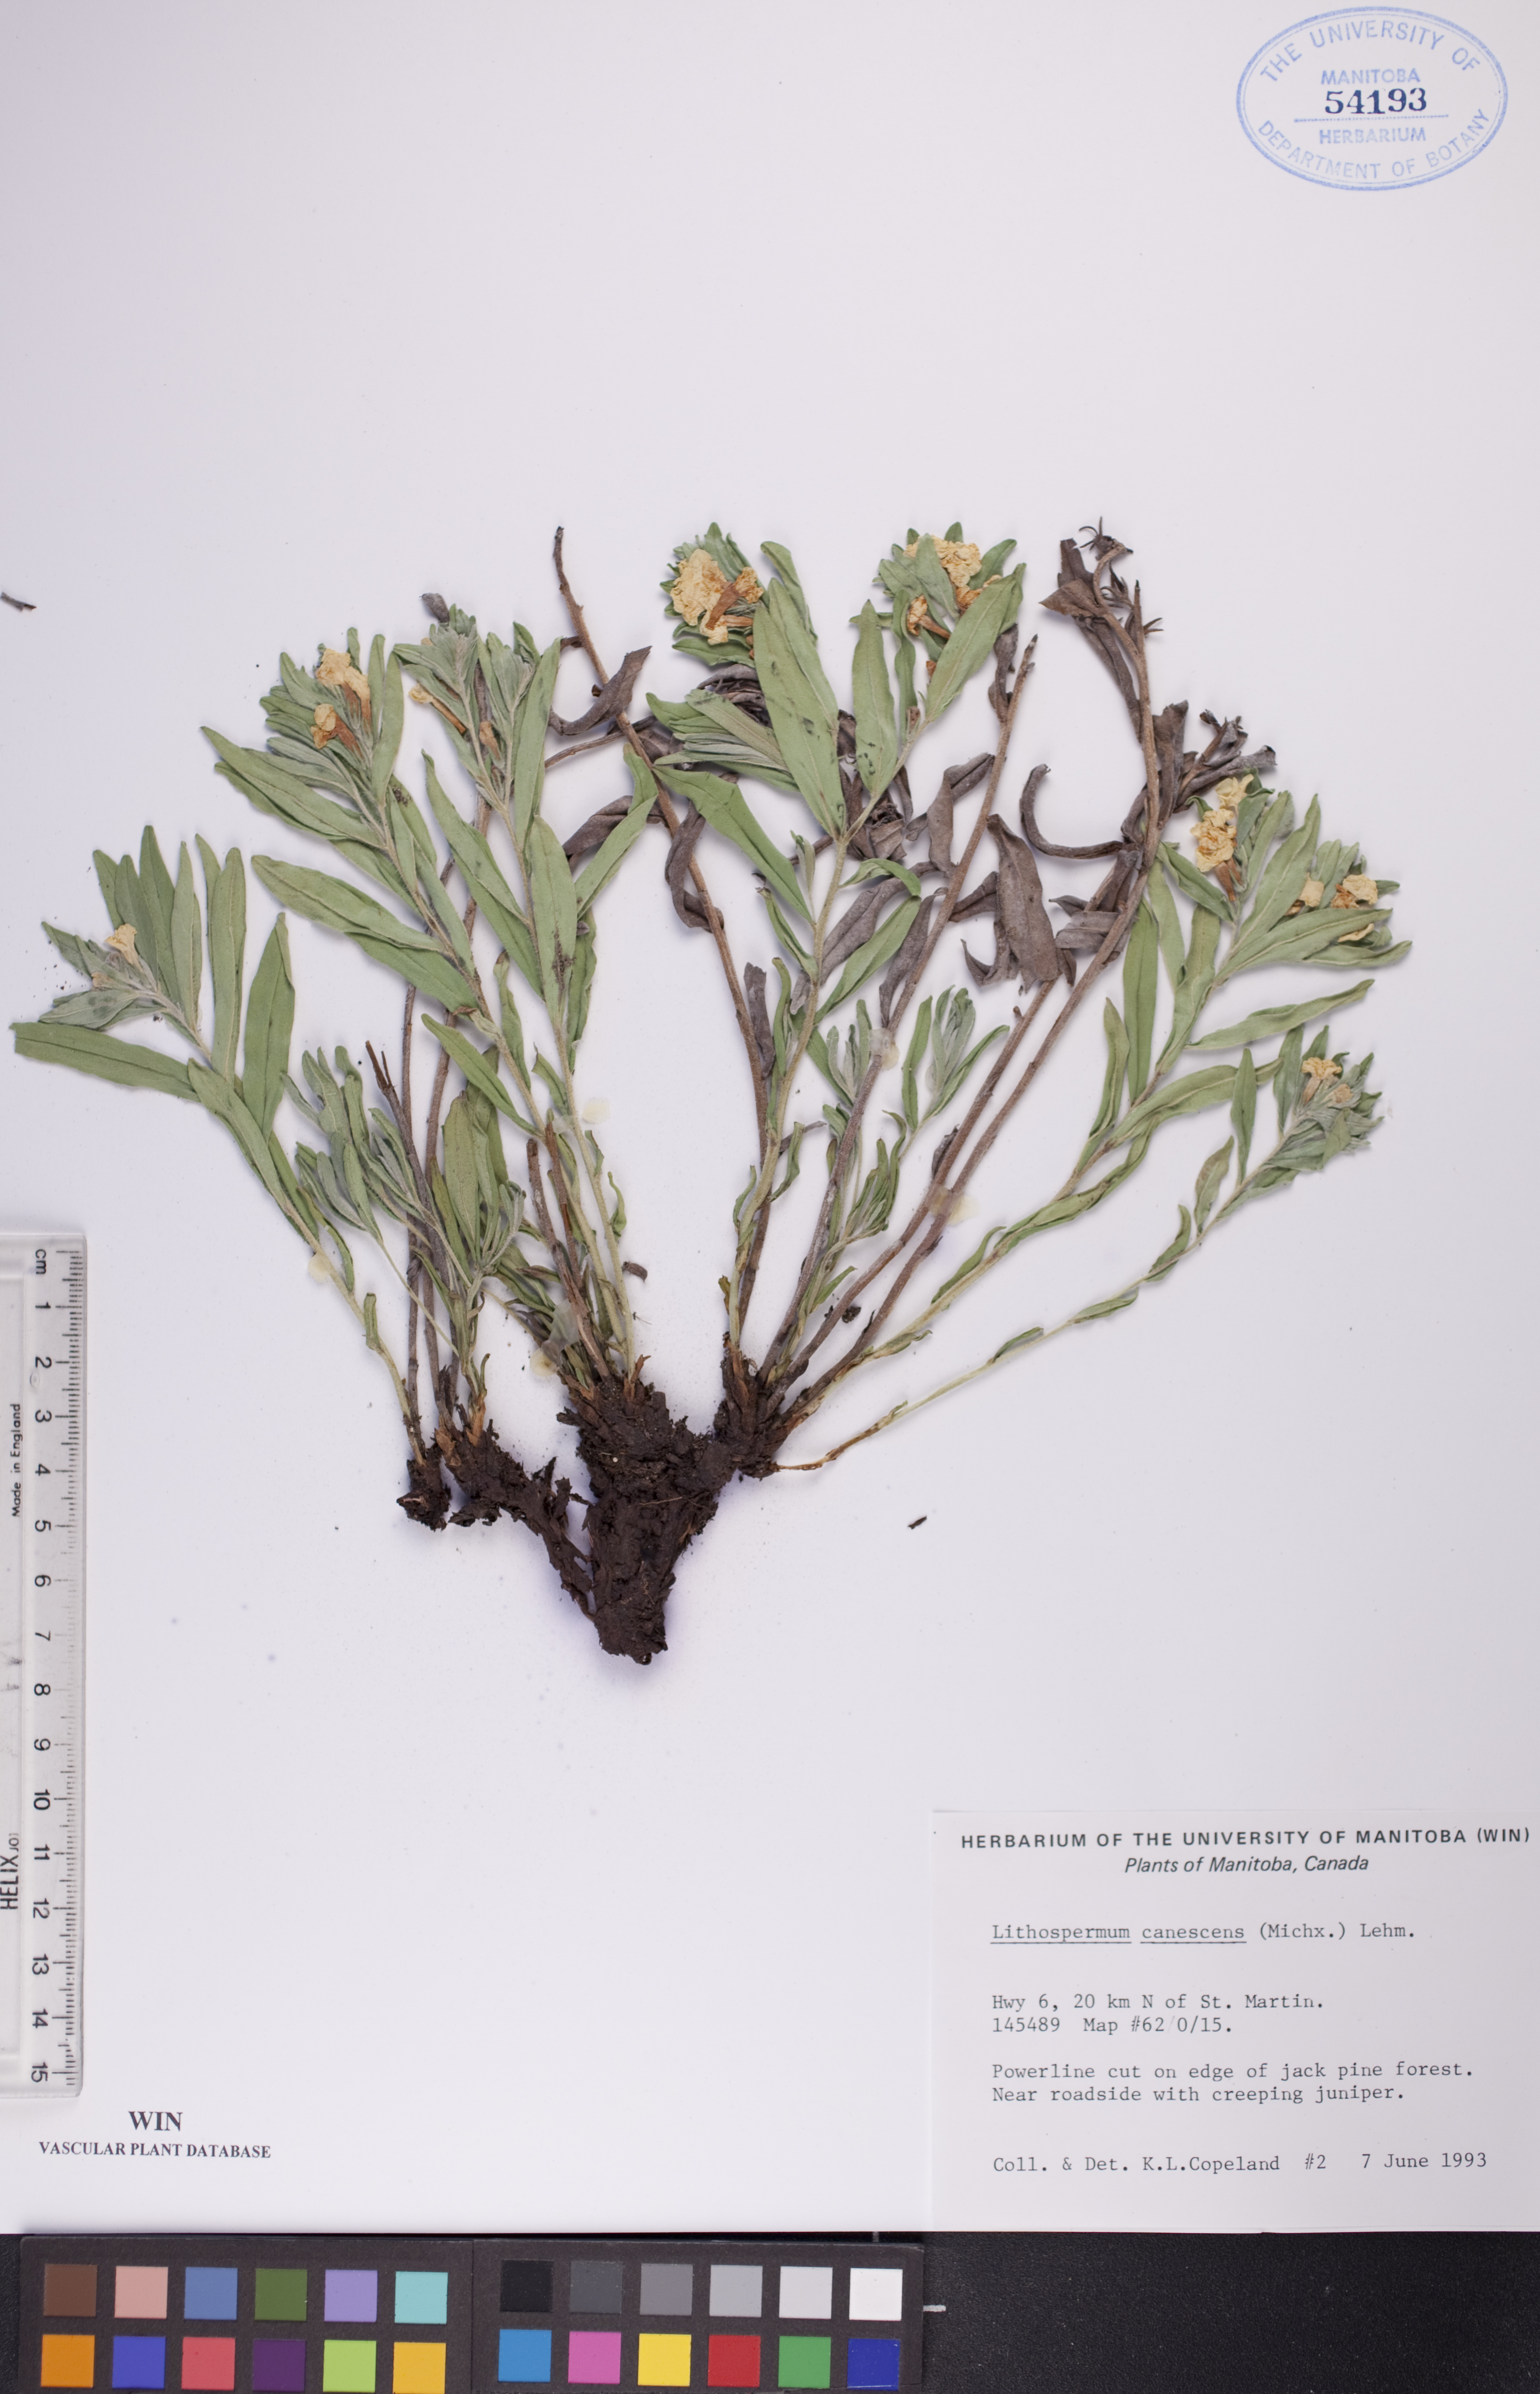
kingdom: Plantae
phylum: Tracheophyta
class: Magnoliopsida
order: Boraginales
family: Boraginaceae
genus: Lithospermum
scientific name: Lithospermum canescens
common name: Hoary puccoon
